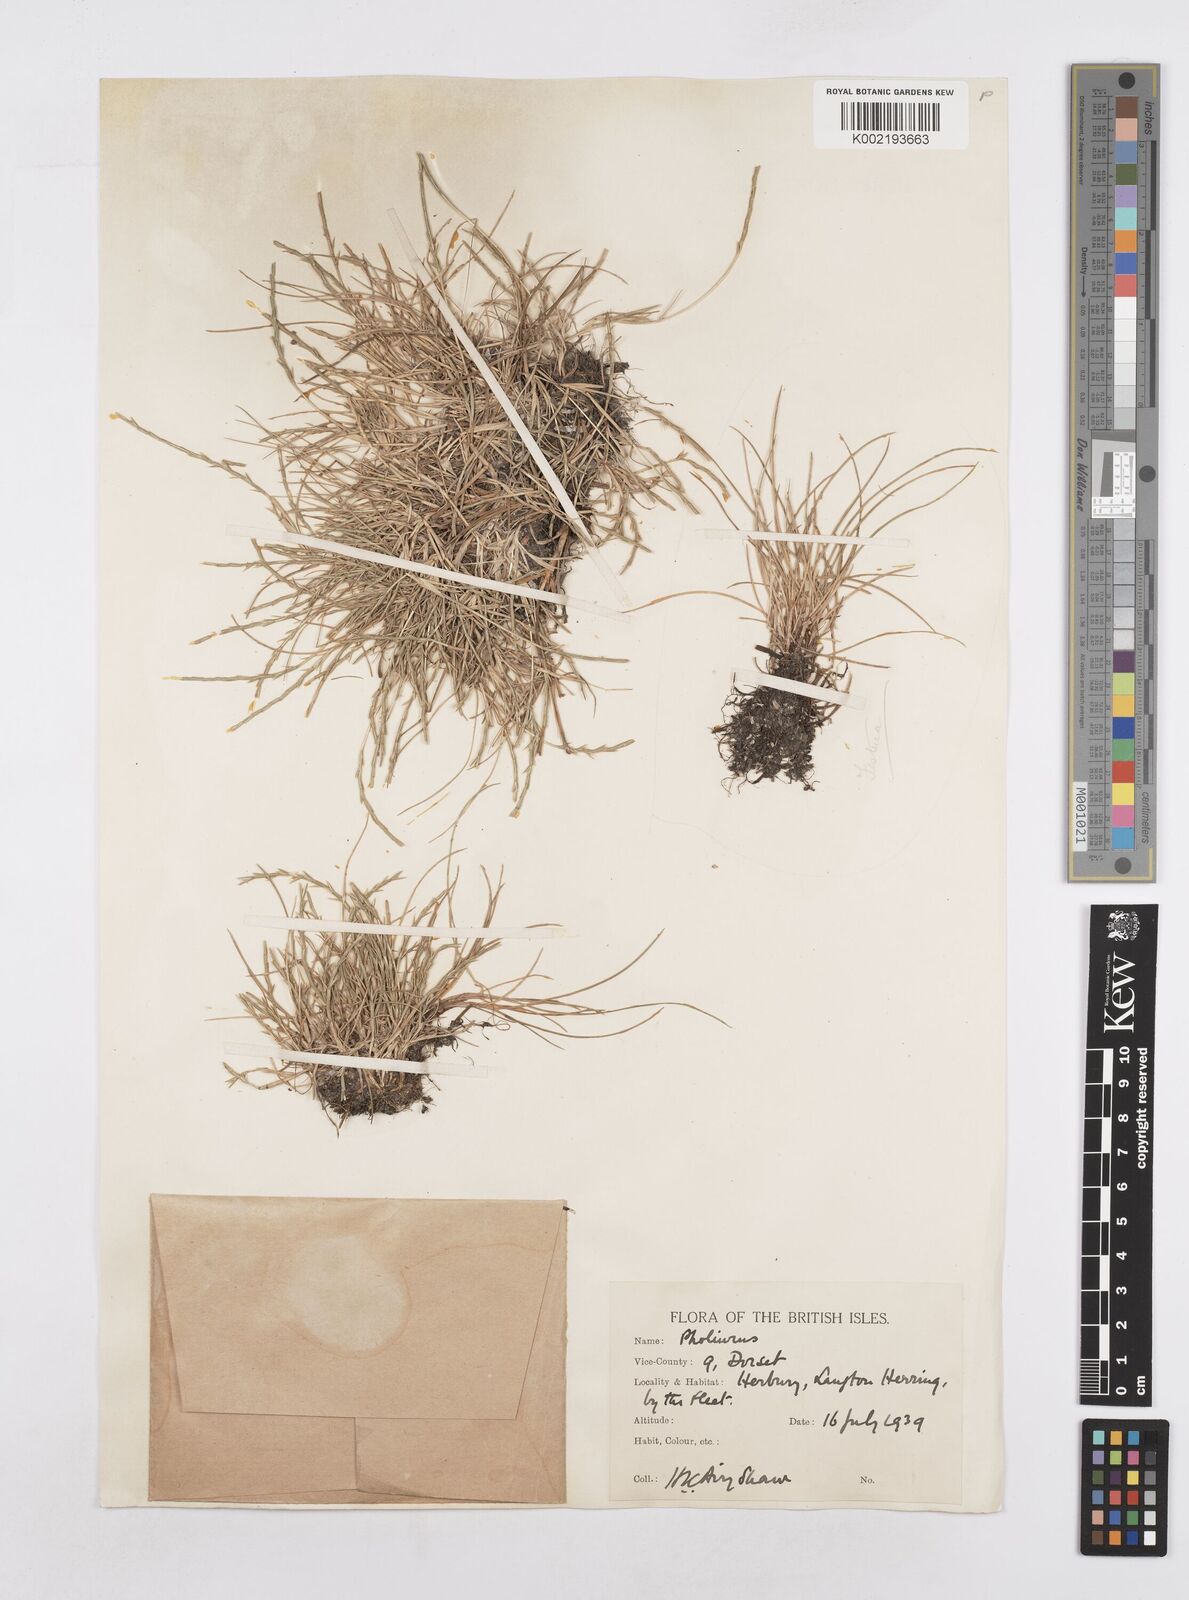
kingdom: Plantae
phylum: Tracheophyta
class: Liliopsida
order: Poales
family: Poaceae
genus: Parapholis
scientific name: Parapholis strigosa
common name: Hard-grass
